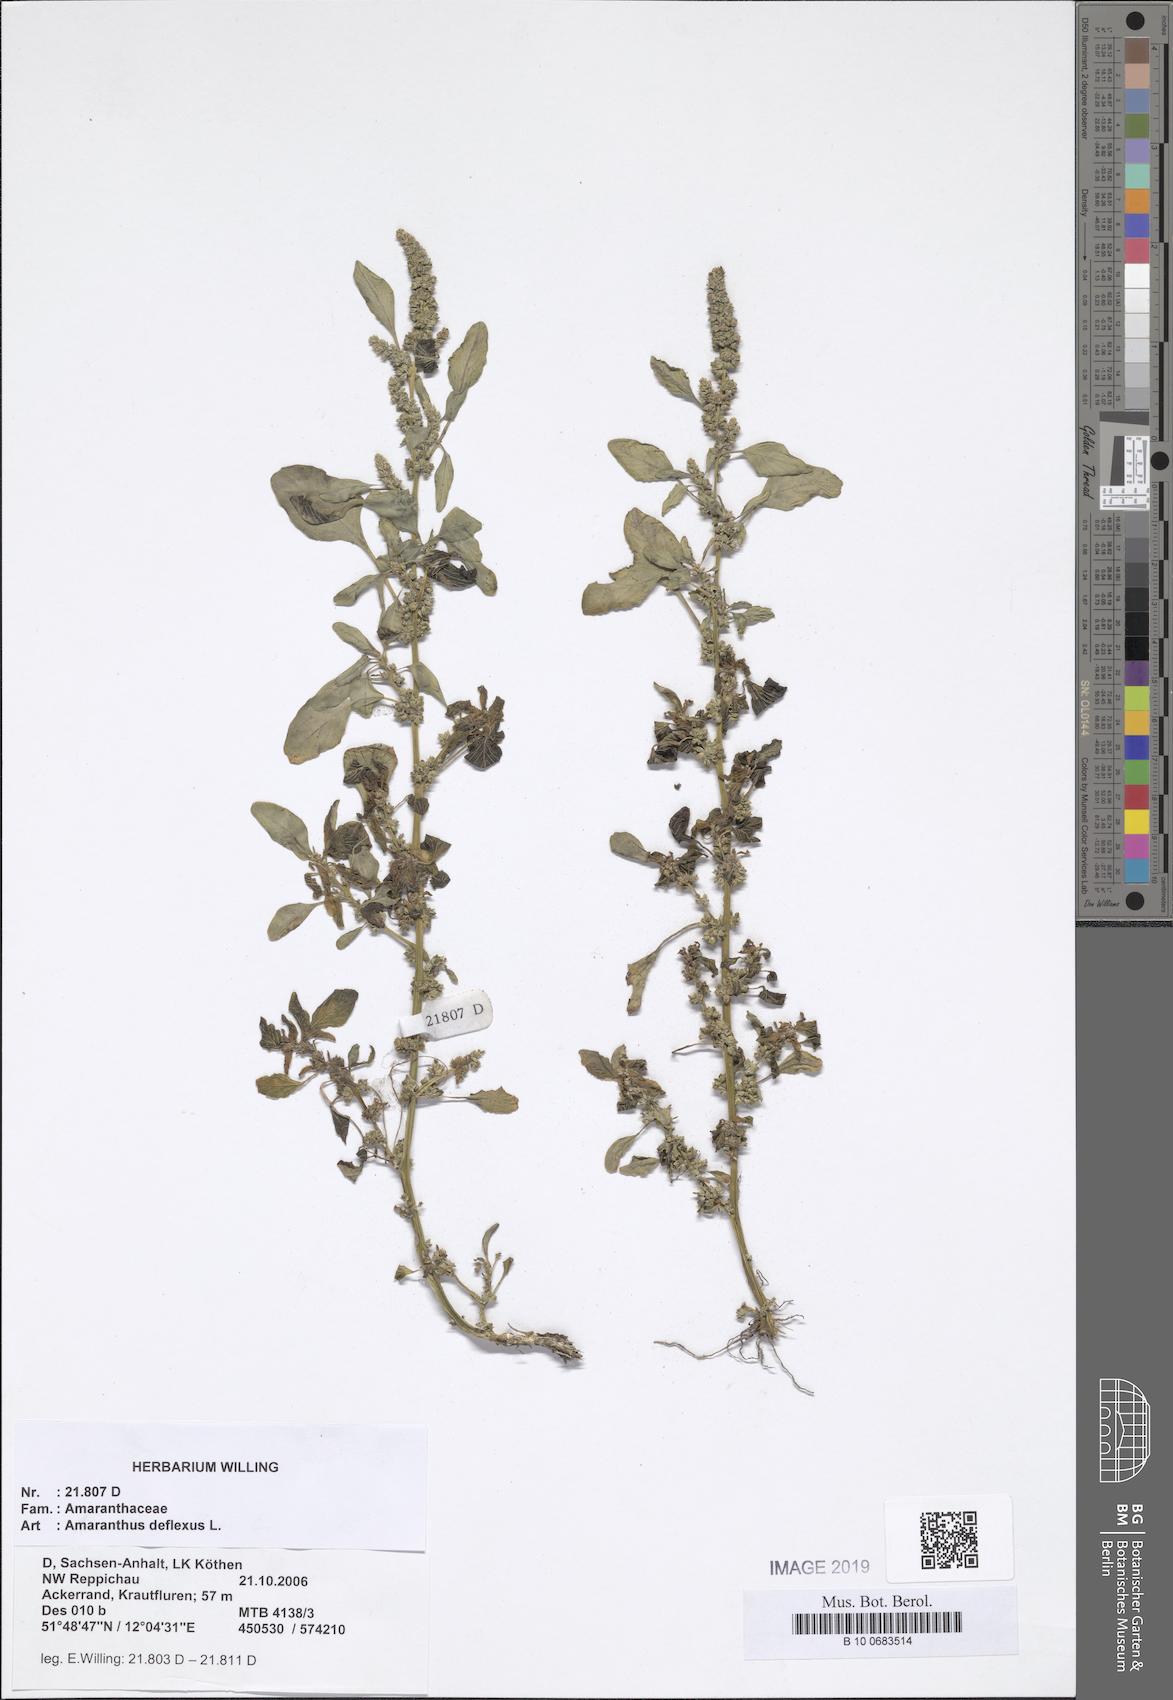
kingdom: Plantae
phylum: Tracheophyta
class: Magnoliopsida
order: Caryophyllales
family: Amaranthaceae
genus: Amaranthus
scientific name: Amaranthus deflexus
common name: Perennial pigweed
